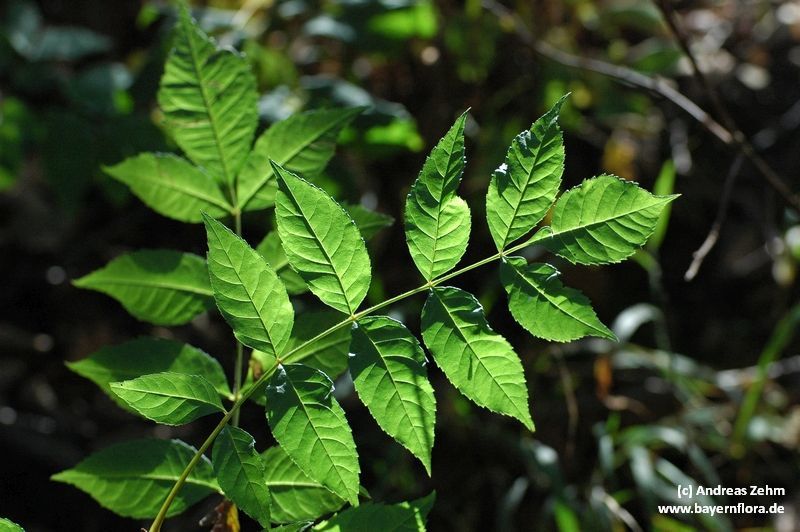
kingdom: Plantae
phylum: Tracheophyta
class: Magnoliopsida
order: Lamiales
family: Oleaceae
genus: Fraxinus
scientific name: Fraxinus excelsior
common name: European ash
